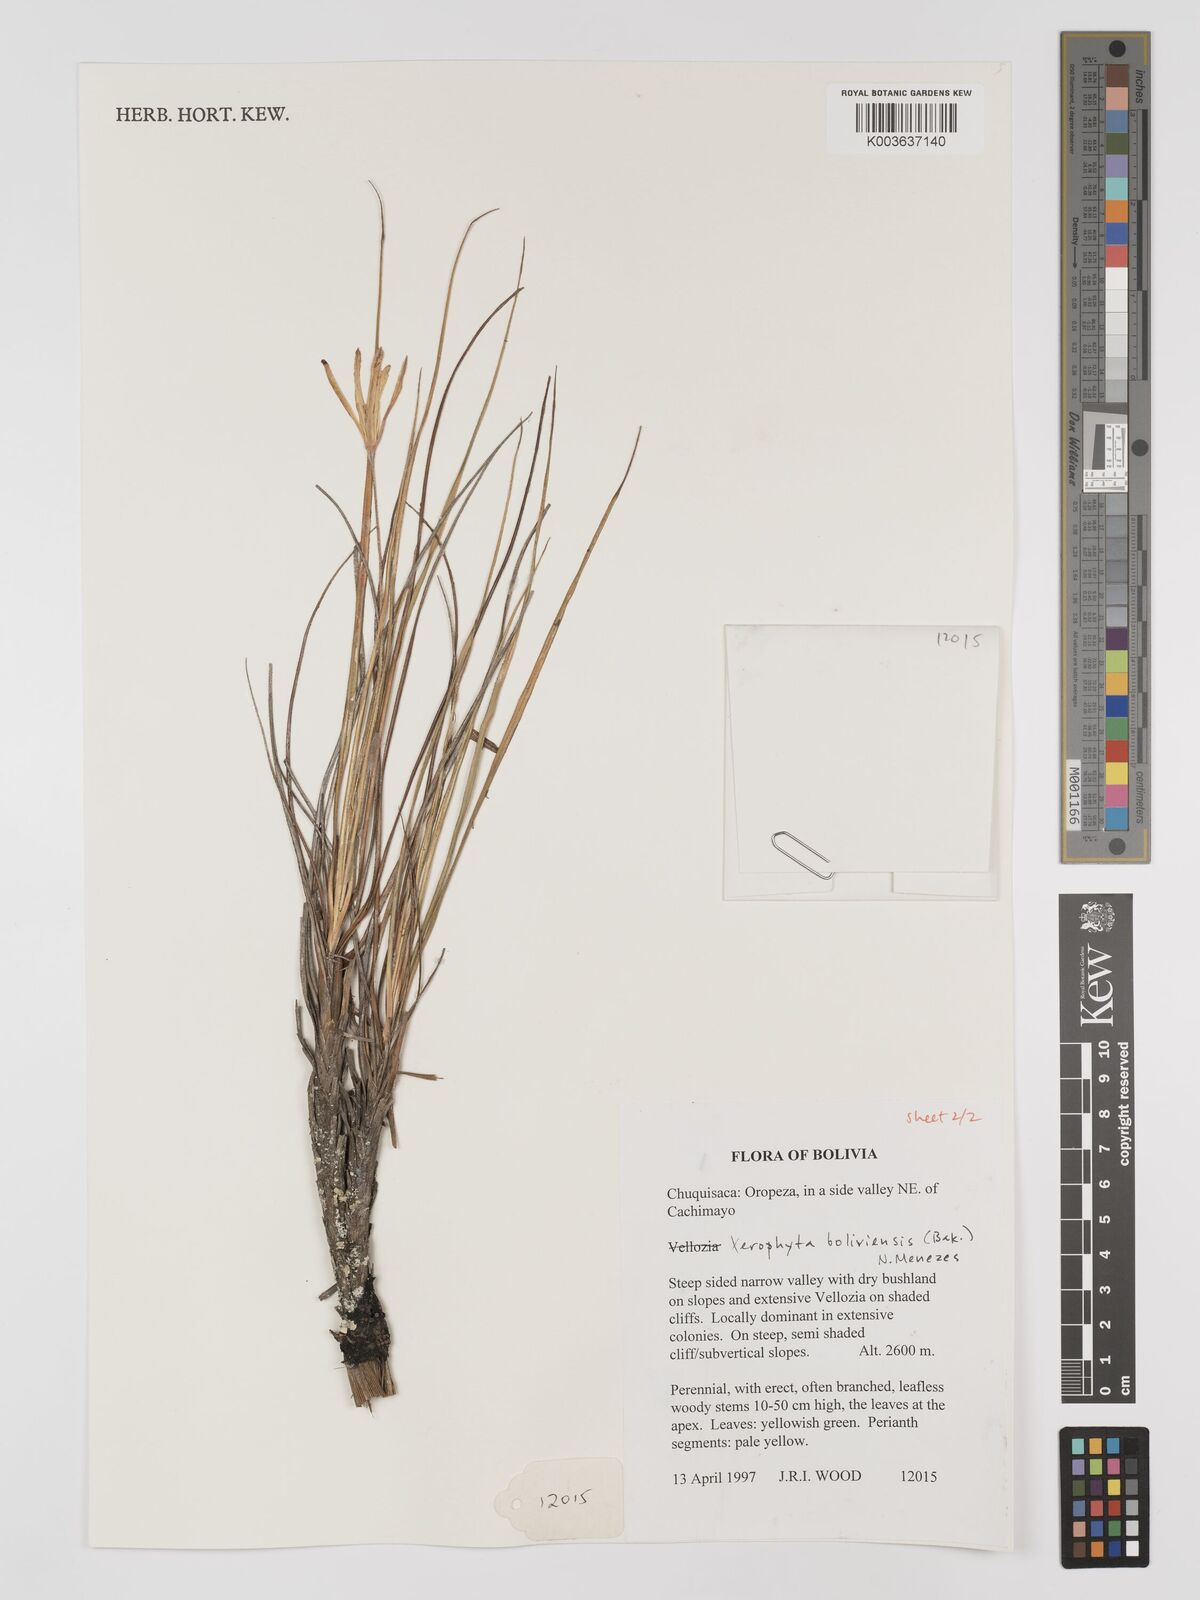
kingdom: Plantae
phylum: Tracheophyta
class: Liliopsida
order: Pandanales
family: Velloziaceae
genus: Barbaceniopsis
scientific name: Barbaceniopsis boliviensis
